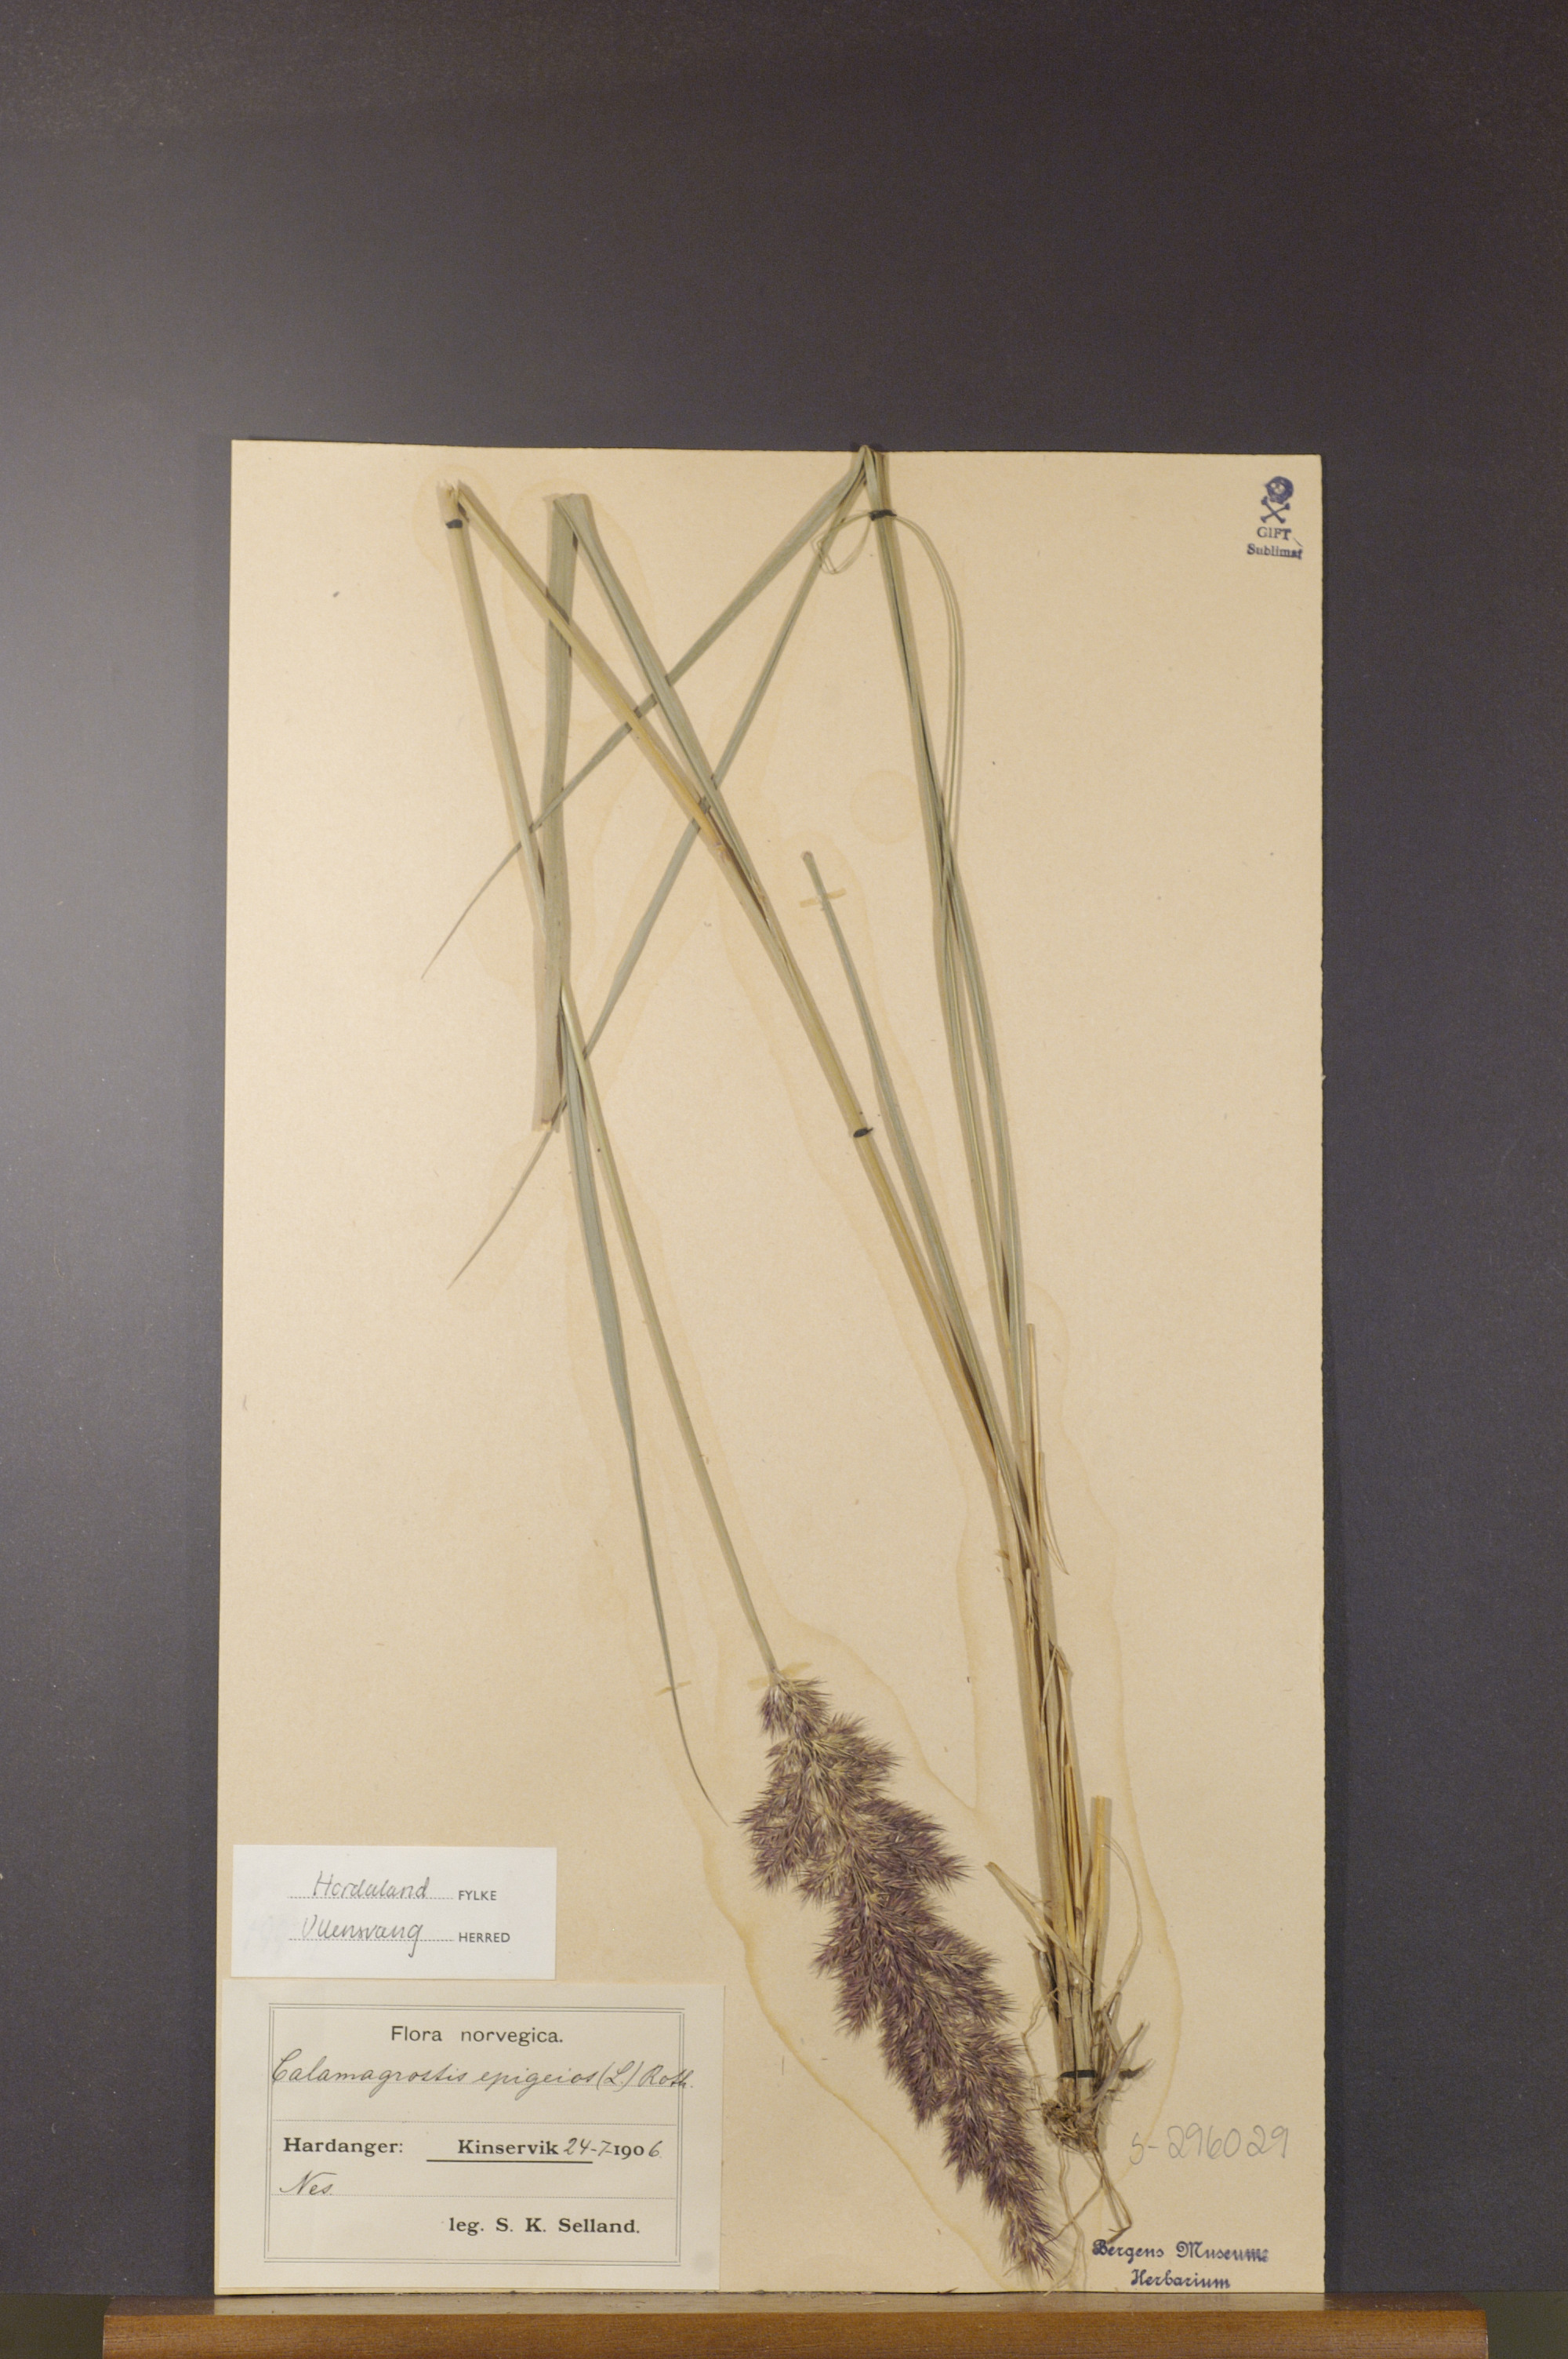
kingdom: Plantae
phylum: Tracheophyta
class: Liliopsida
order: Poales
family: Poaceae
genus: Calamagrostis
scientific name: Calamagrostis epigejos
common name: Wood small-reed
